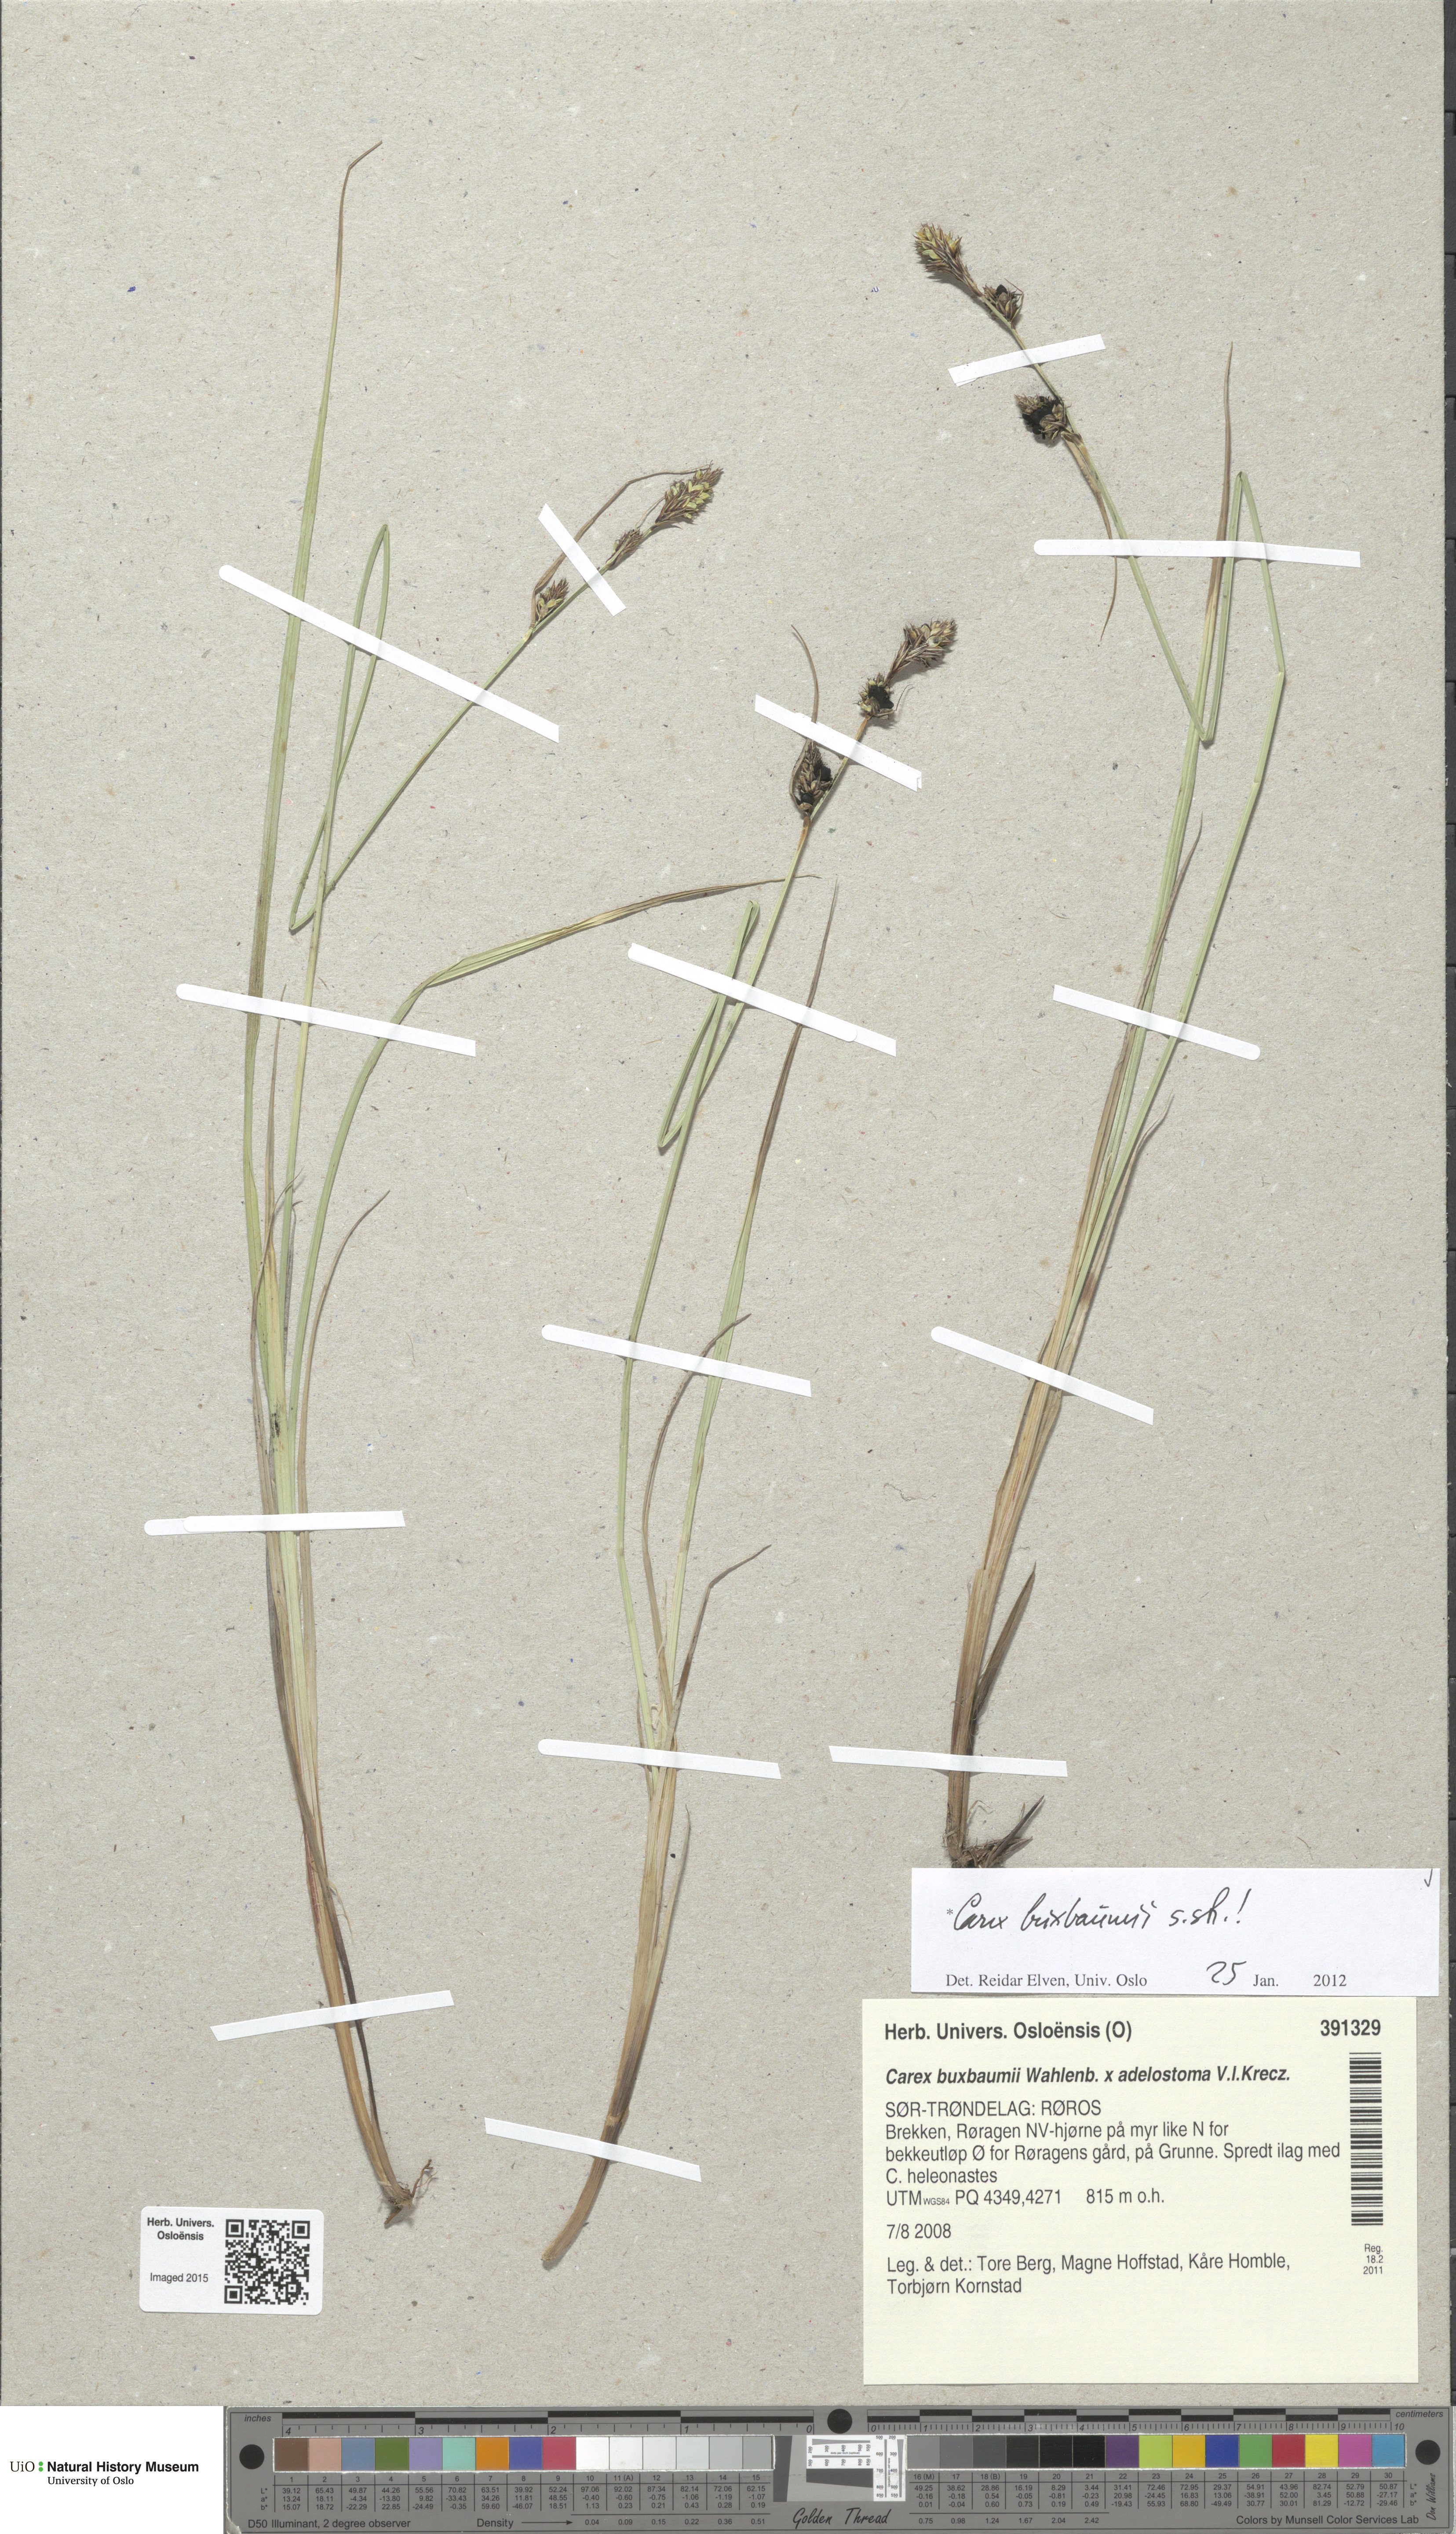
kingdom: Plantae
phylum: Tracheophyta
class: Liliopsida
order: Poales
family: Cyperaceae
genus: Carex
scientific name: Carex buxbaumii
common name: Club sedge
